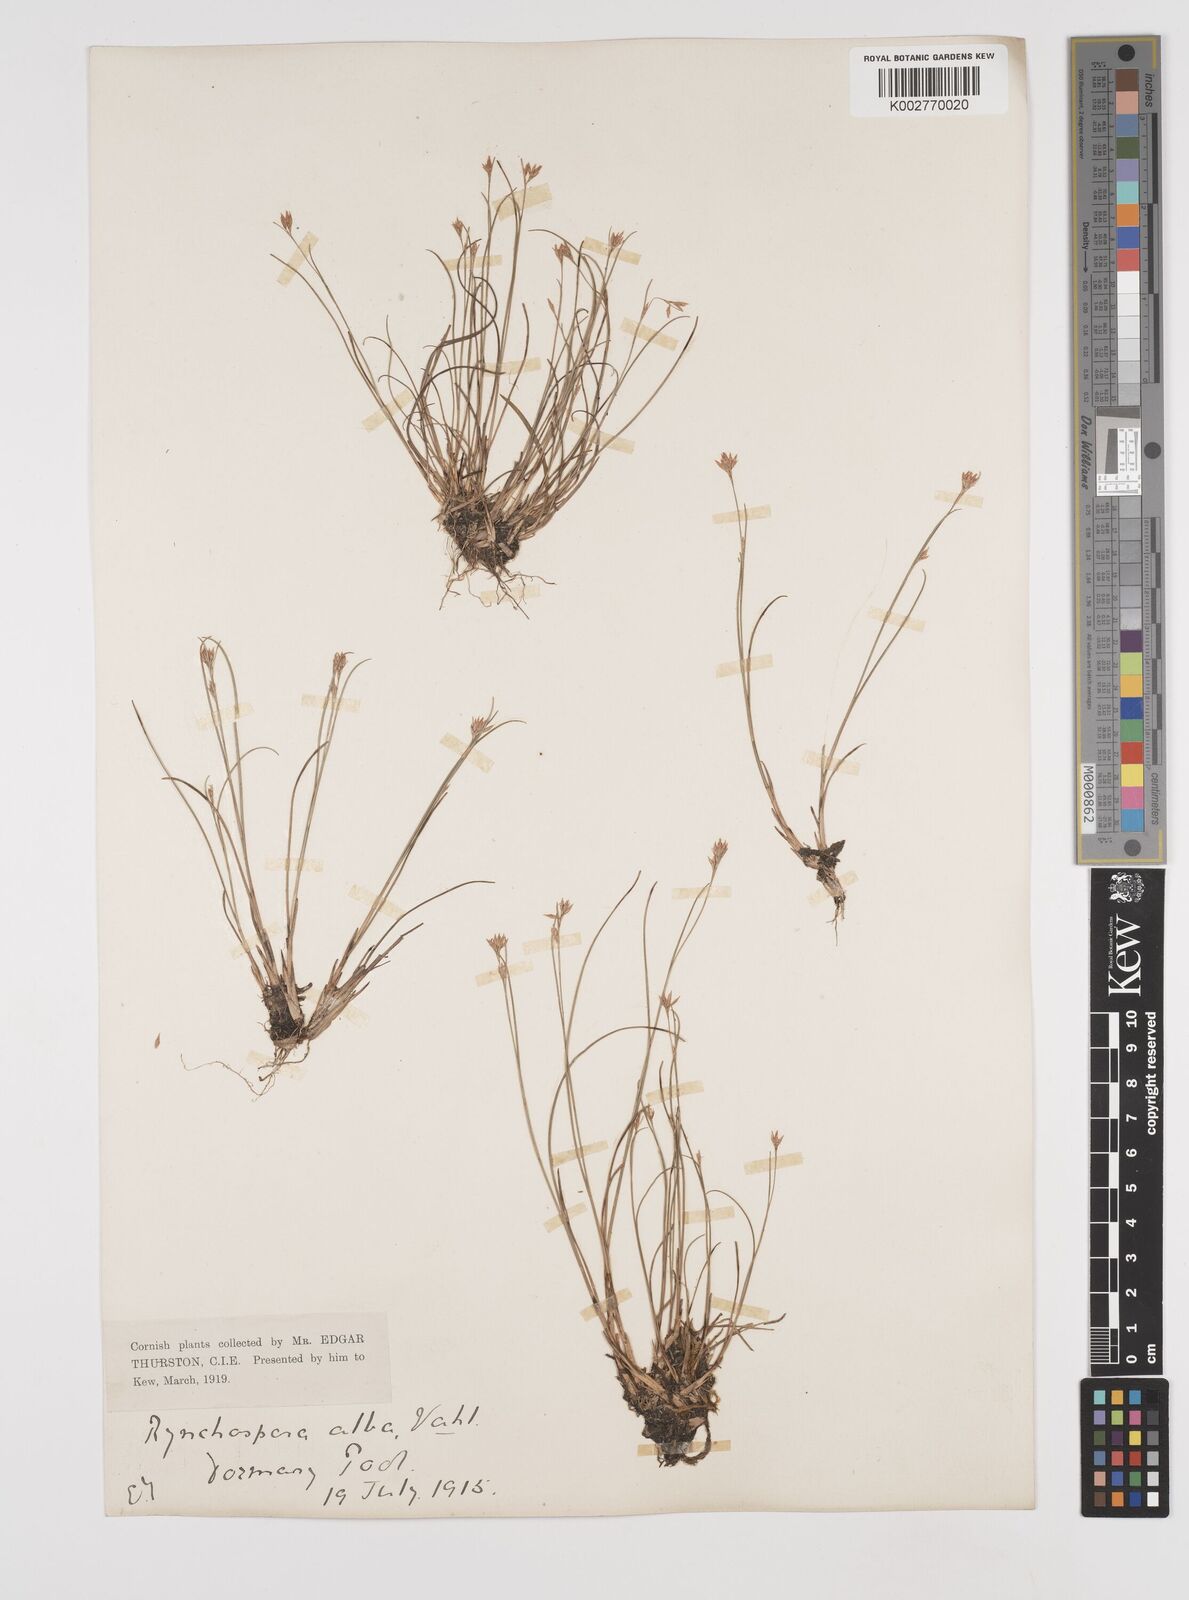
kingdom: Plantae
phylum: Tracheophyta
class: Liliopsida
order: Poales
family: Cyperaceae
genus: Rhynchospora
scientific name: Rhynchospora alba
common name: White beak-sedge
